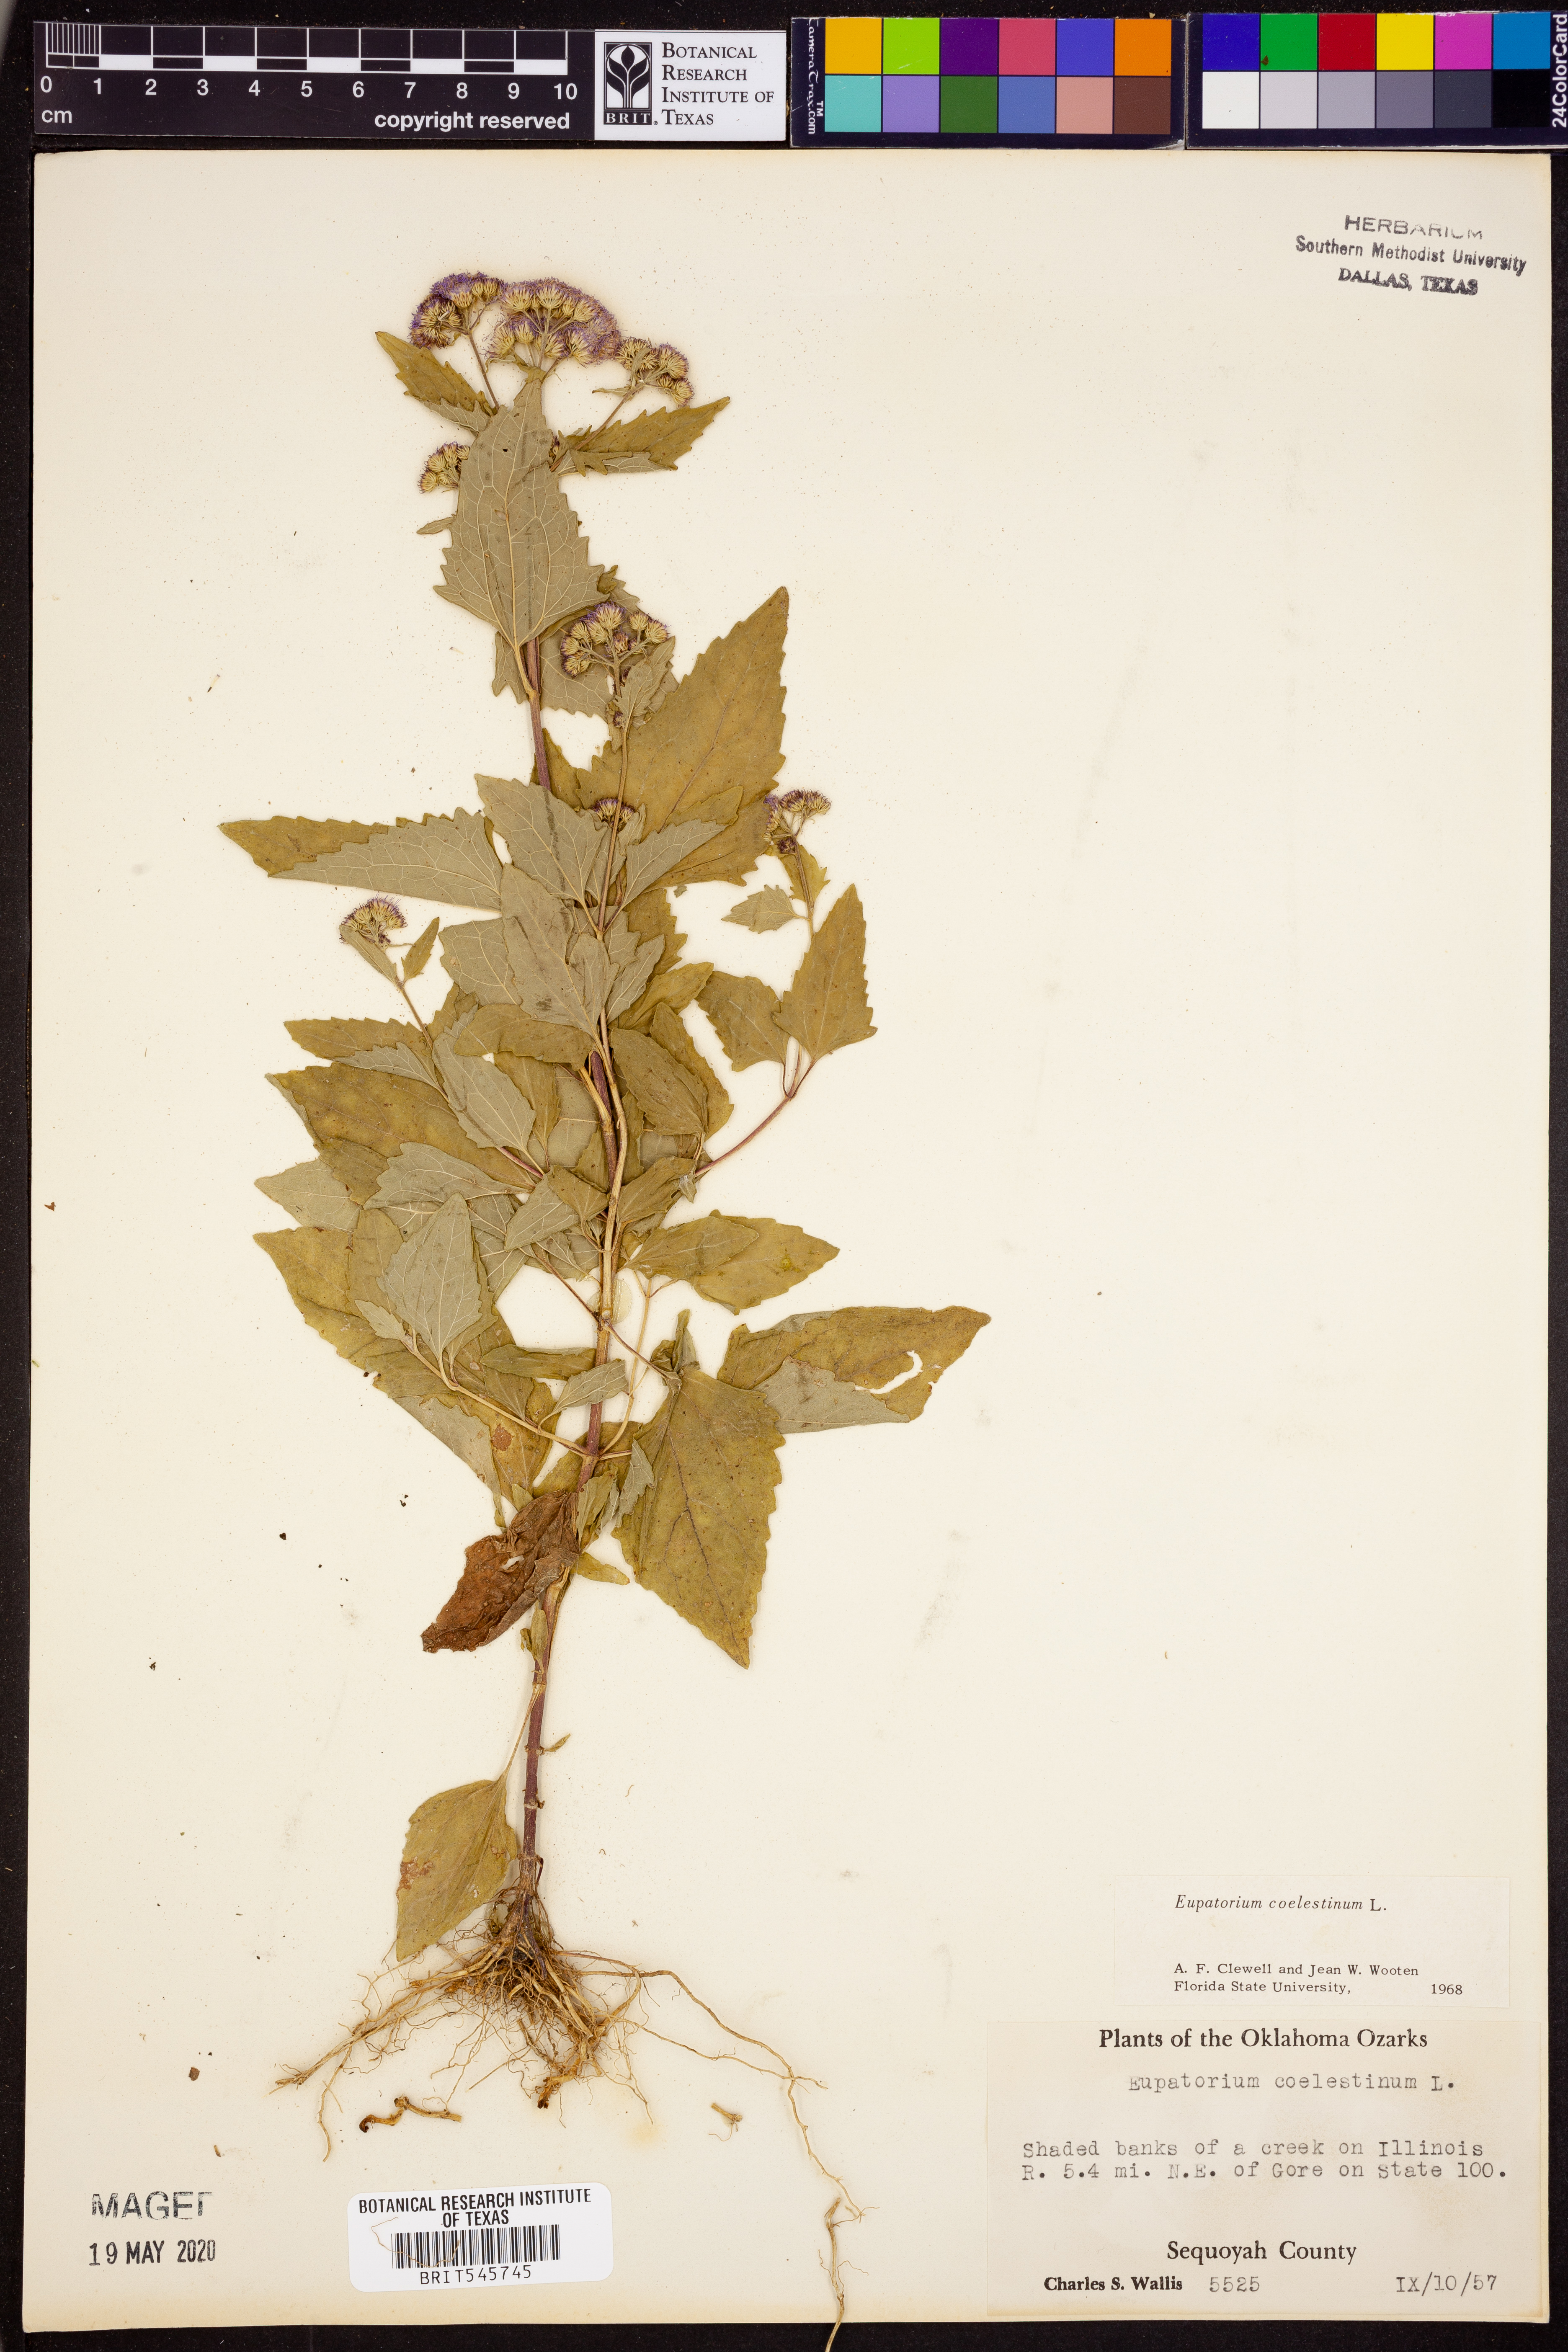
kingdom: Plantae
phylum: Tracheophyta
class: Magnoliopsida
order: Asterales
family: Asteraceae
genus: Conoclinium
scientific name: Conoclinium coelestinum
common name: Blue mistflower
